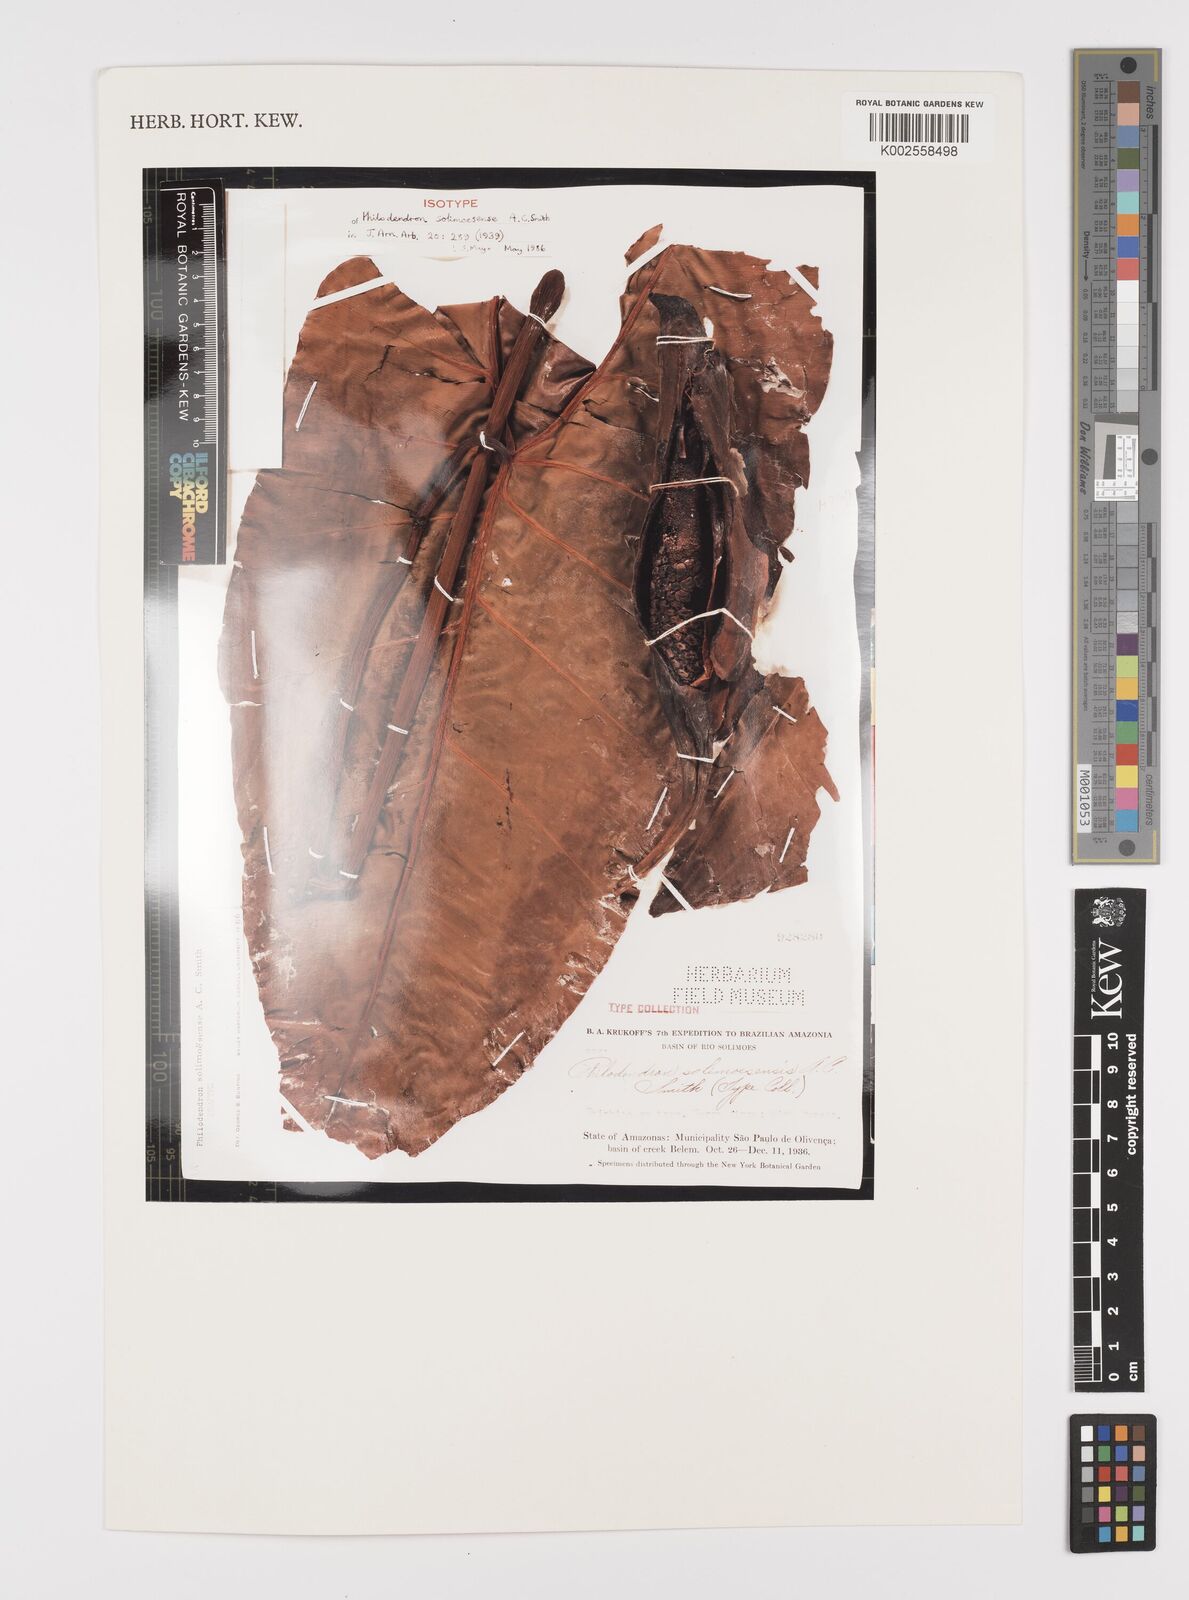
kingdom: Plantae
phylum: Tracheophyta
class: Liliopsida
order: Alismatales
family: Araceae
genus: Thaumatophyllum
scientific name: Thaumatophyllum solimoesense
